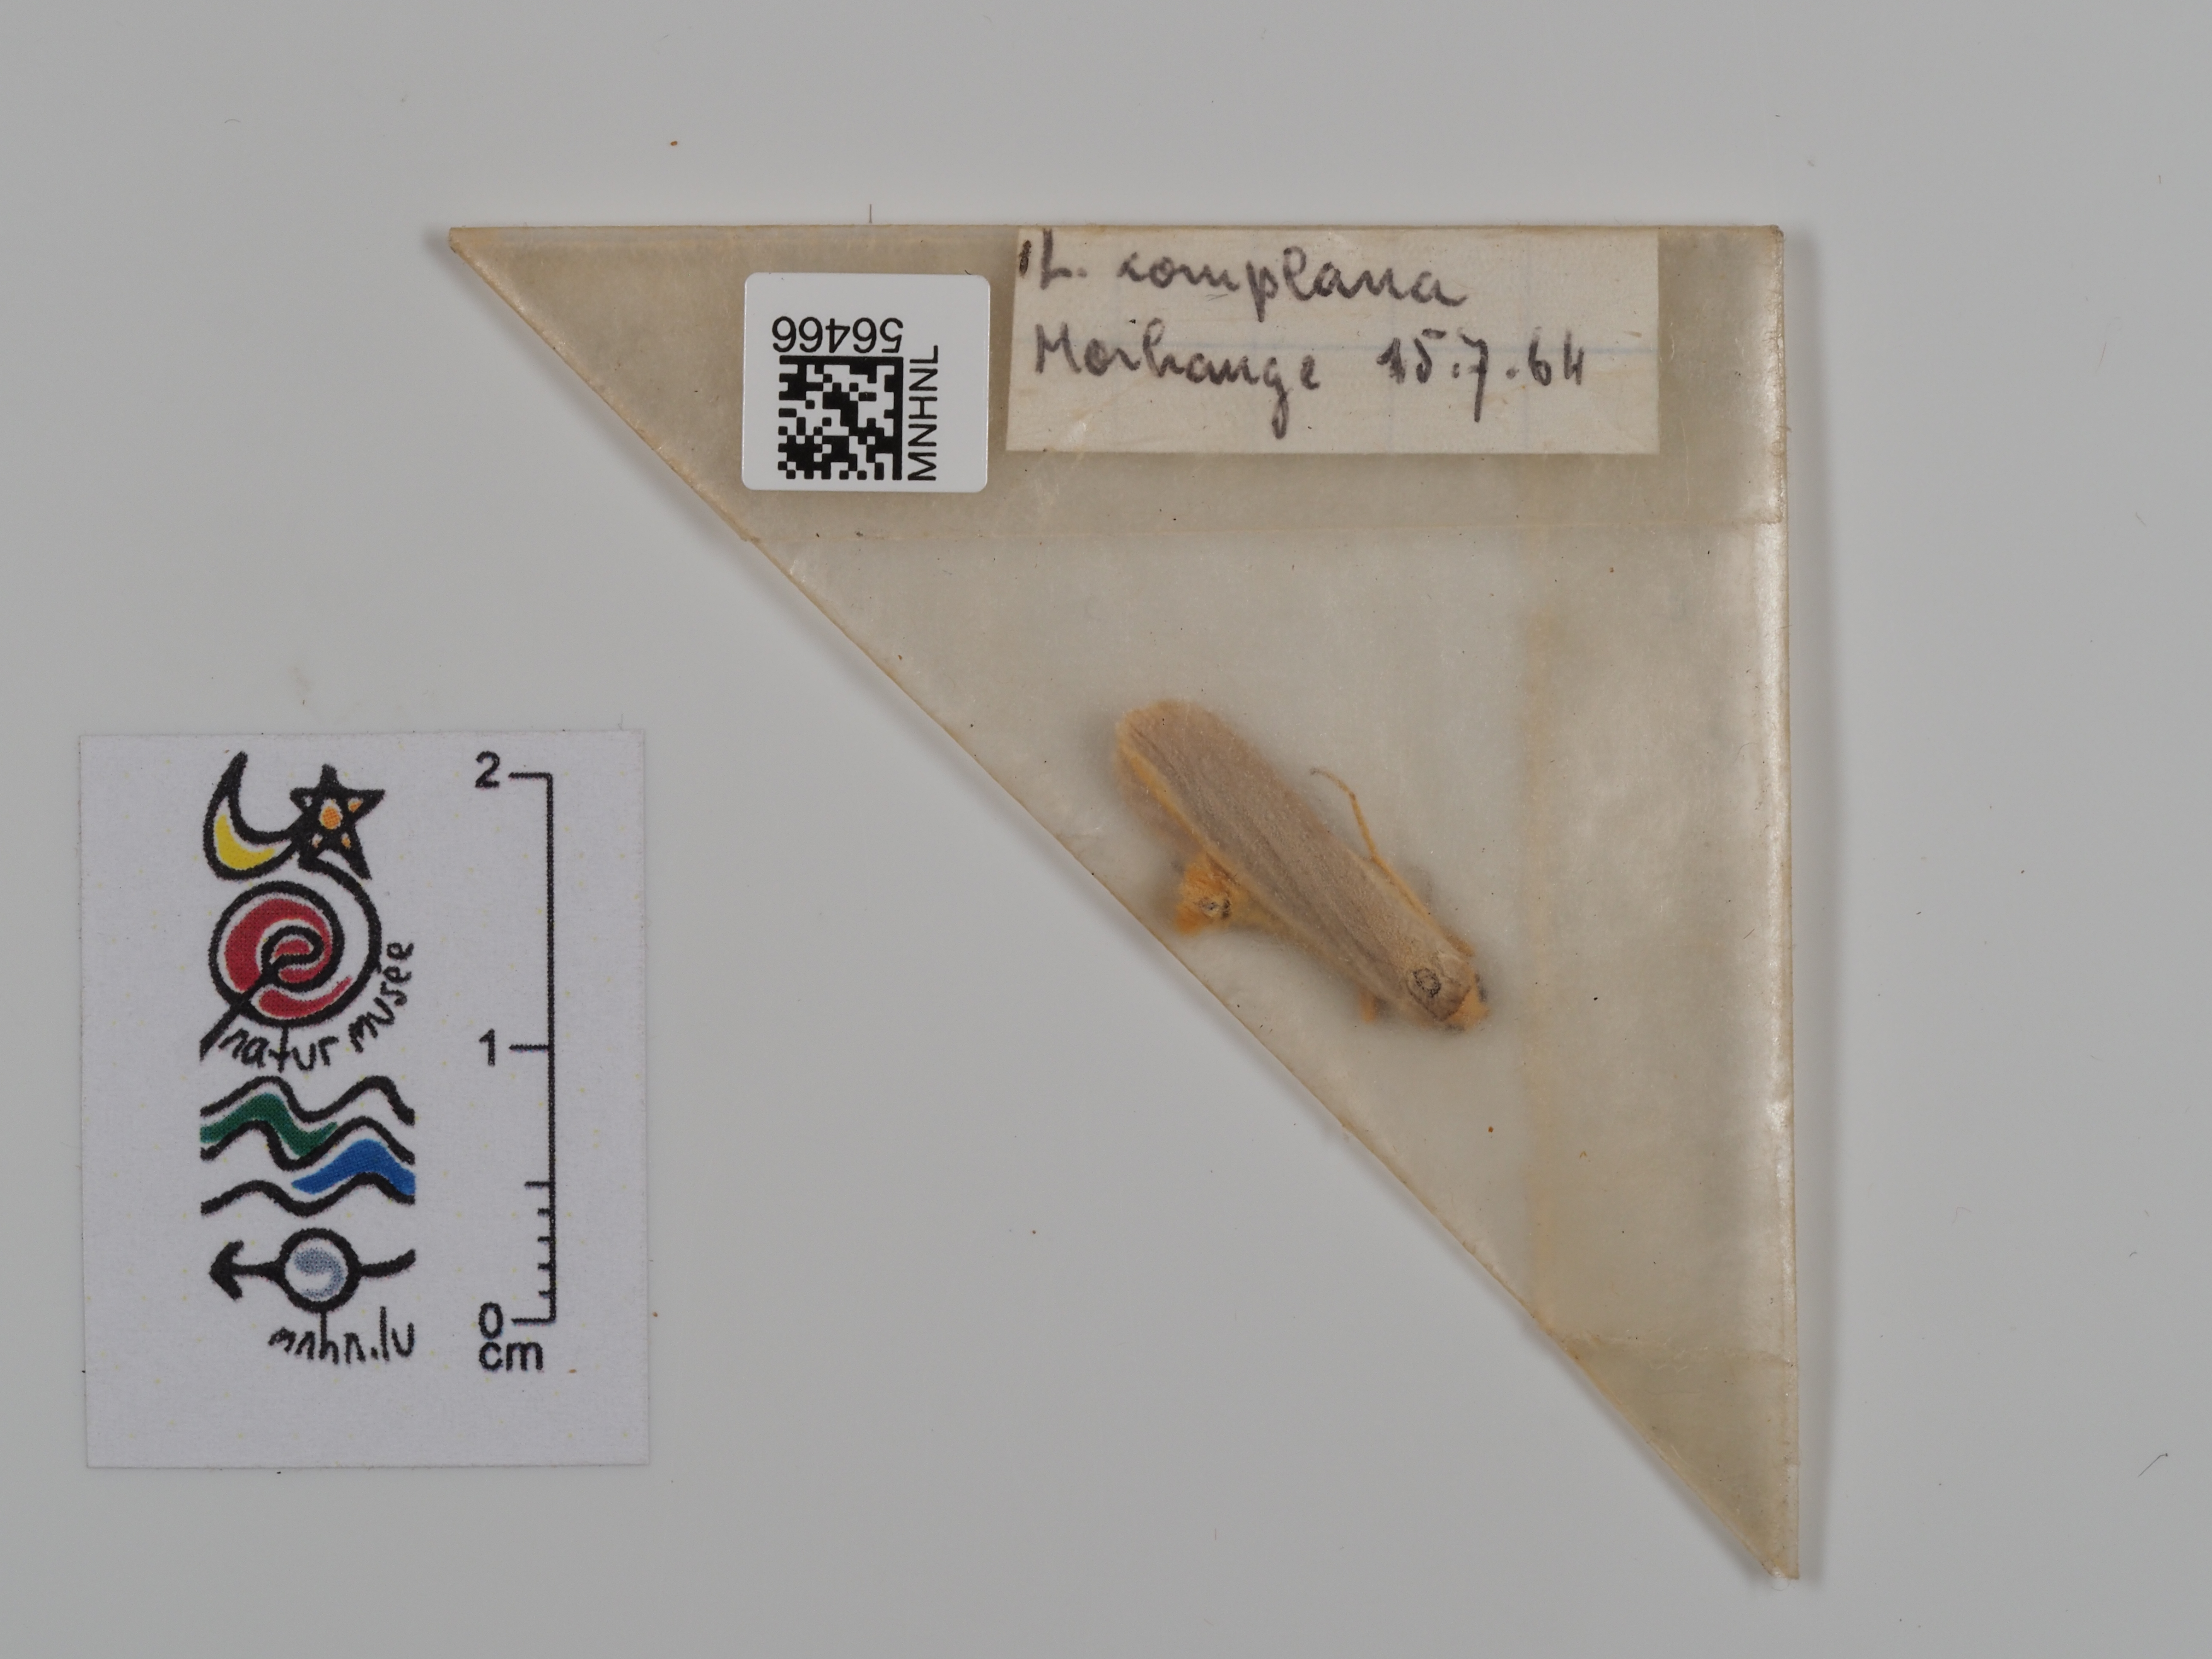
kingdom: Animalia
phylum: Arthropoda
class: Insecta
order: Lepidoptera
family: Erebidae
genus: Manulea
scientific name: Manulea complana
